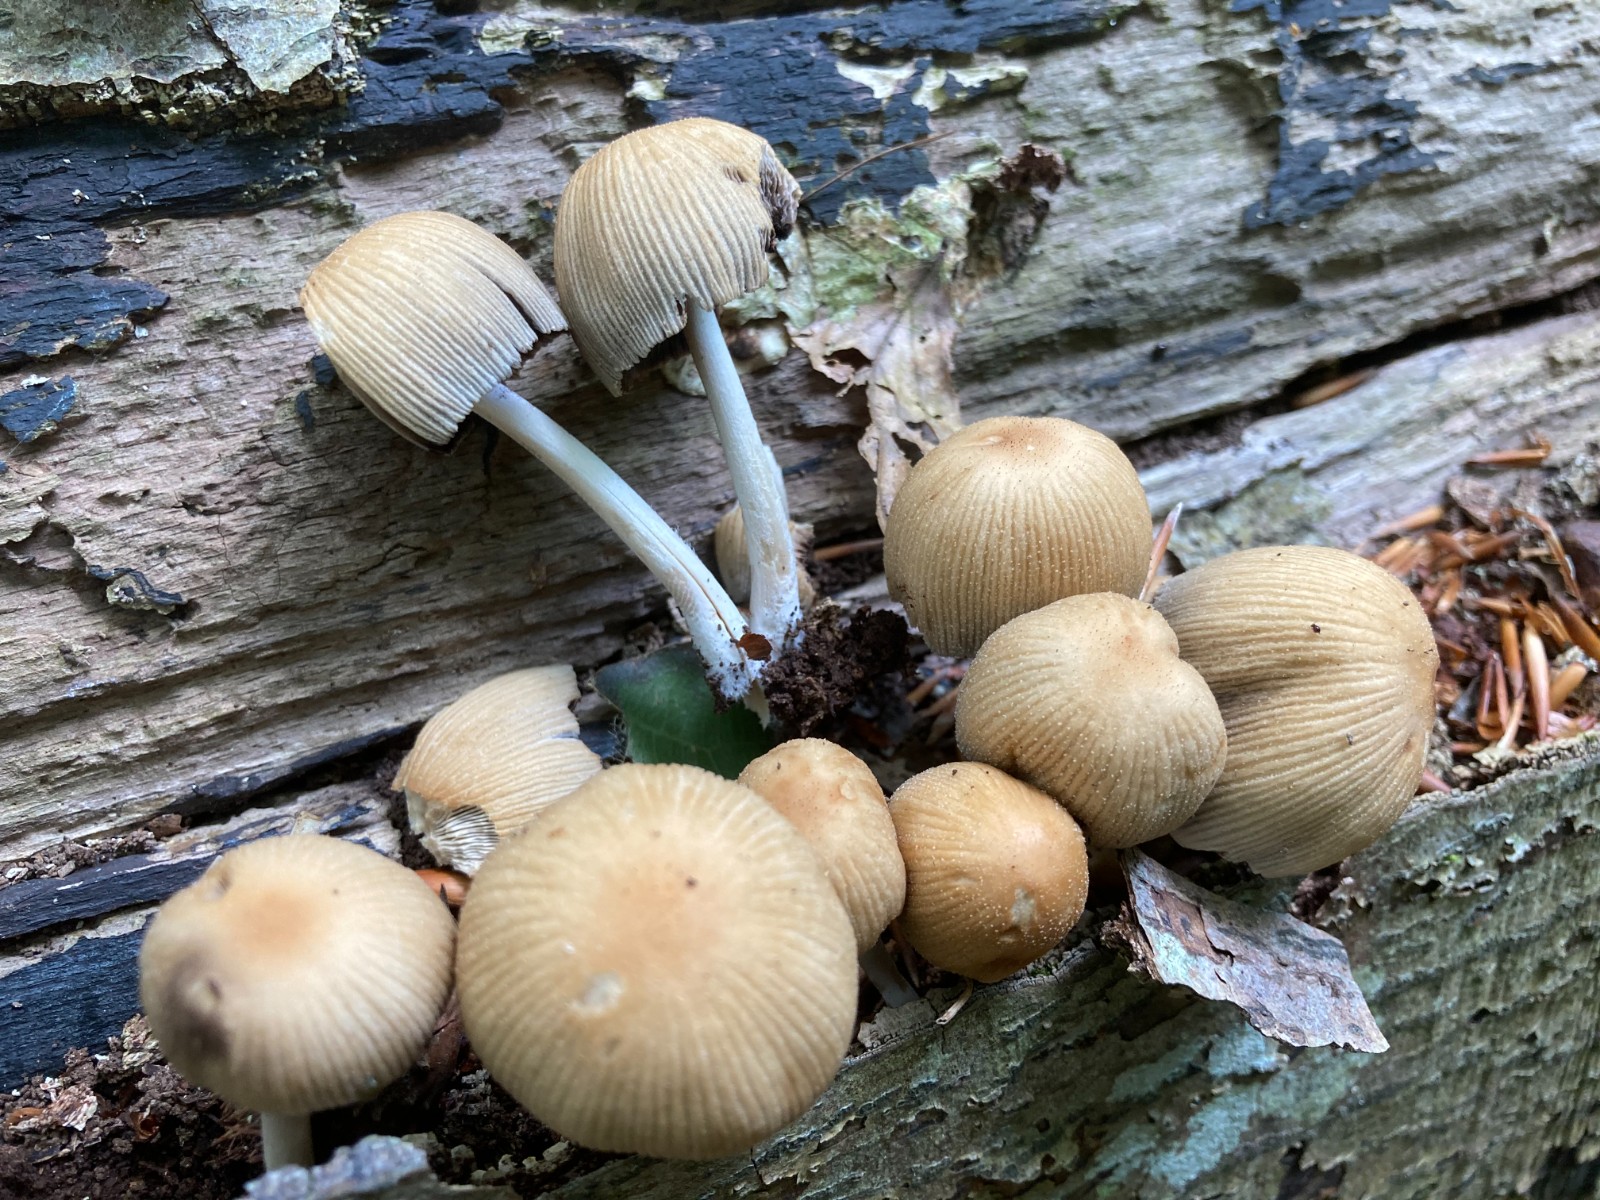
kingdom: Fungi
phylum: Basidiomycota
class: Agaricomycetes
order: Agaricales
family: Psathyrellaceae
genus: Coprinellus
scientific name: Coprinellus micaceus
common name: glimmer-blækhat
